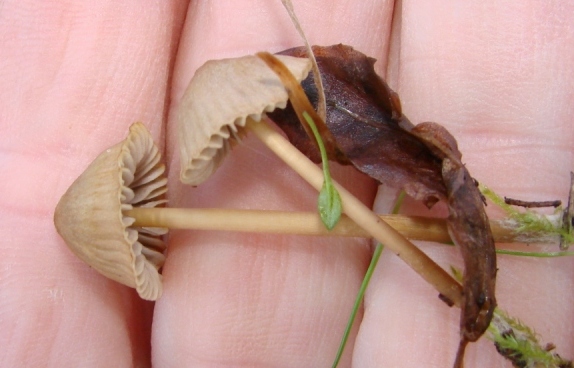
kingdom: Fungi
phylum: Basidiomycota
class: Agaricomycetes
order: Agaricales
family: Mycenaceae
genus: Mycena
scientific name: Mycena olivaceomarginata
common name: brunægget huesvamp
